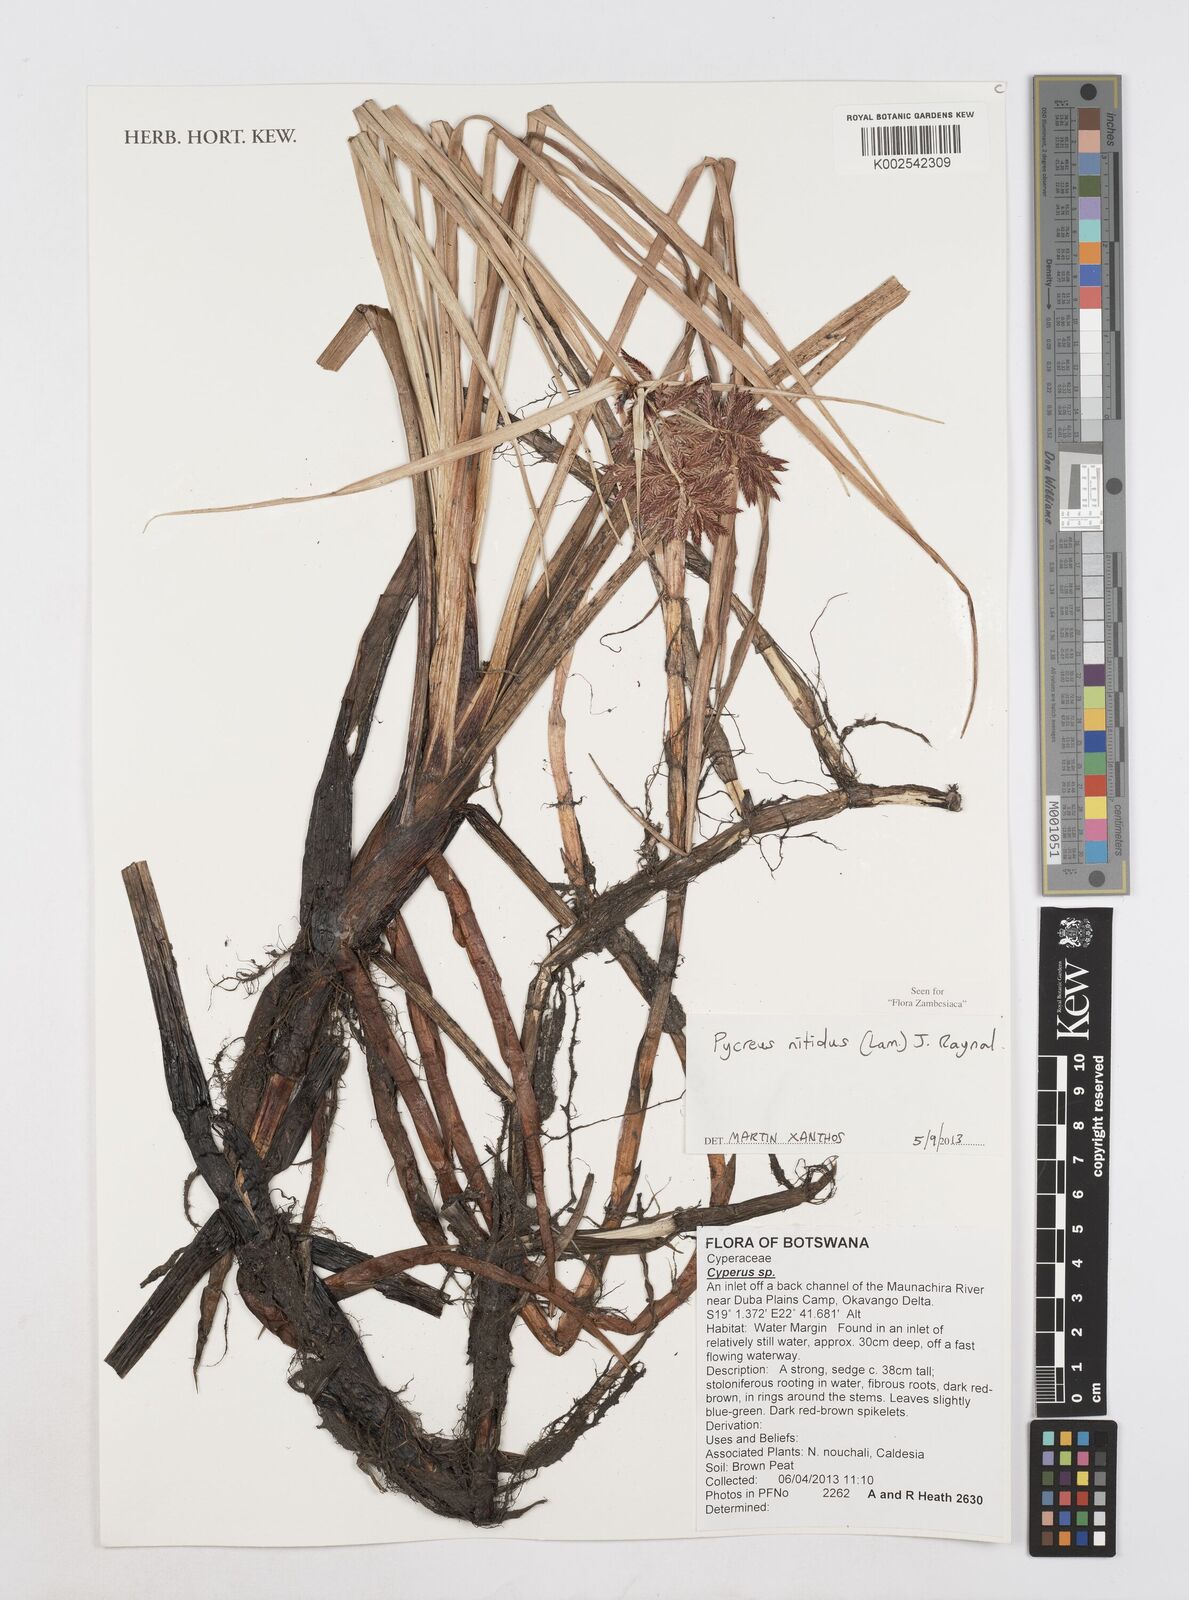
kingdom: Plantae
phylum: Tracheophyta
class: Liliopsida
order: Poales
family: Cyperaceae
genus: Cyperus
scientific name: Cyperus nitidus
